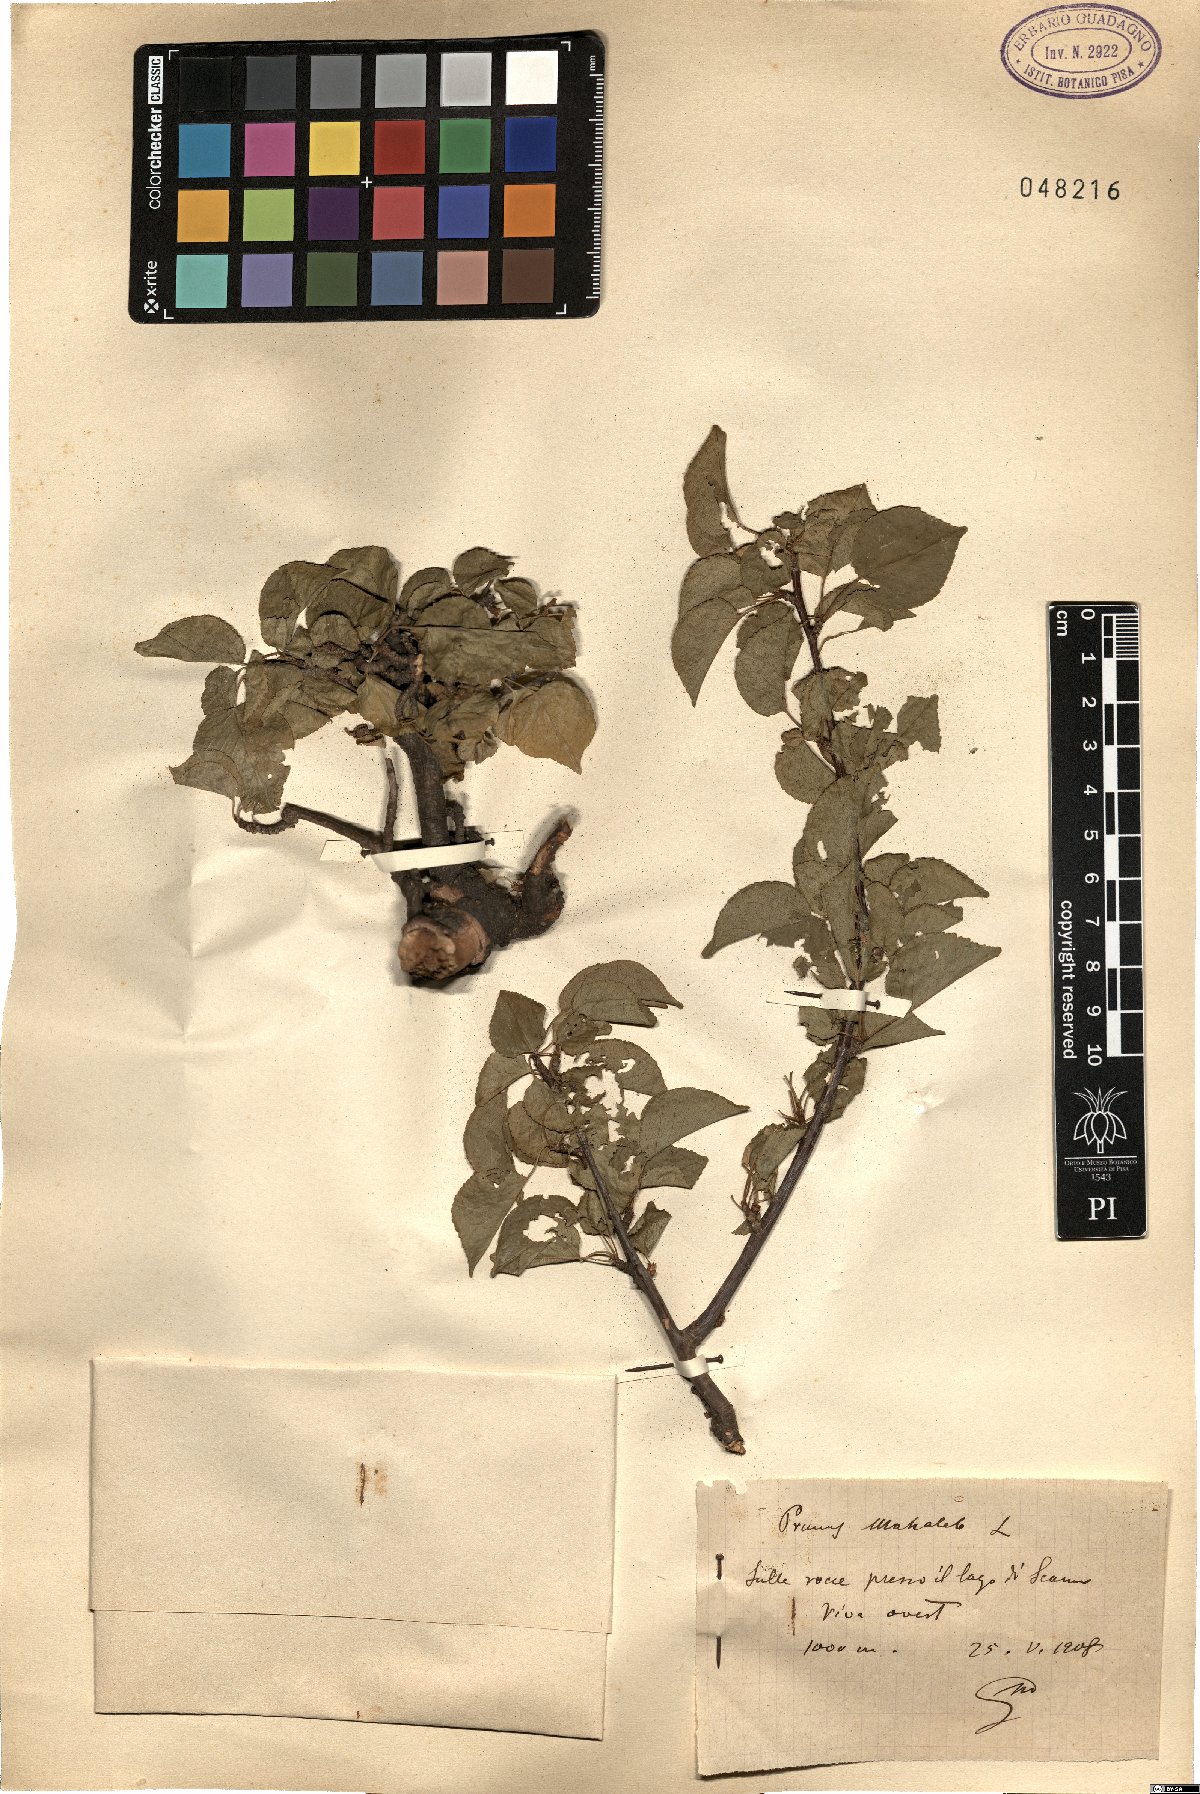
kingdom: Plantae
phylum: Tracheophyta
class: Magnoliopsida
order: Rosales
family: Rosaceae
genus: Prunus
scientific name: Prunus mahaleb
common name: Mahaleb cherry
